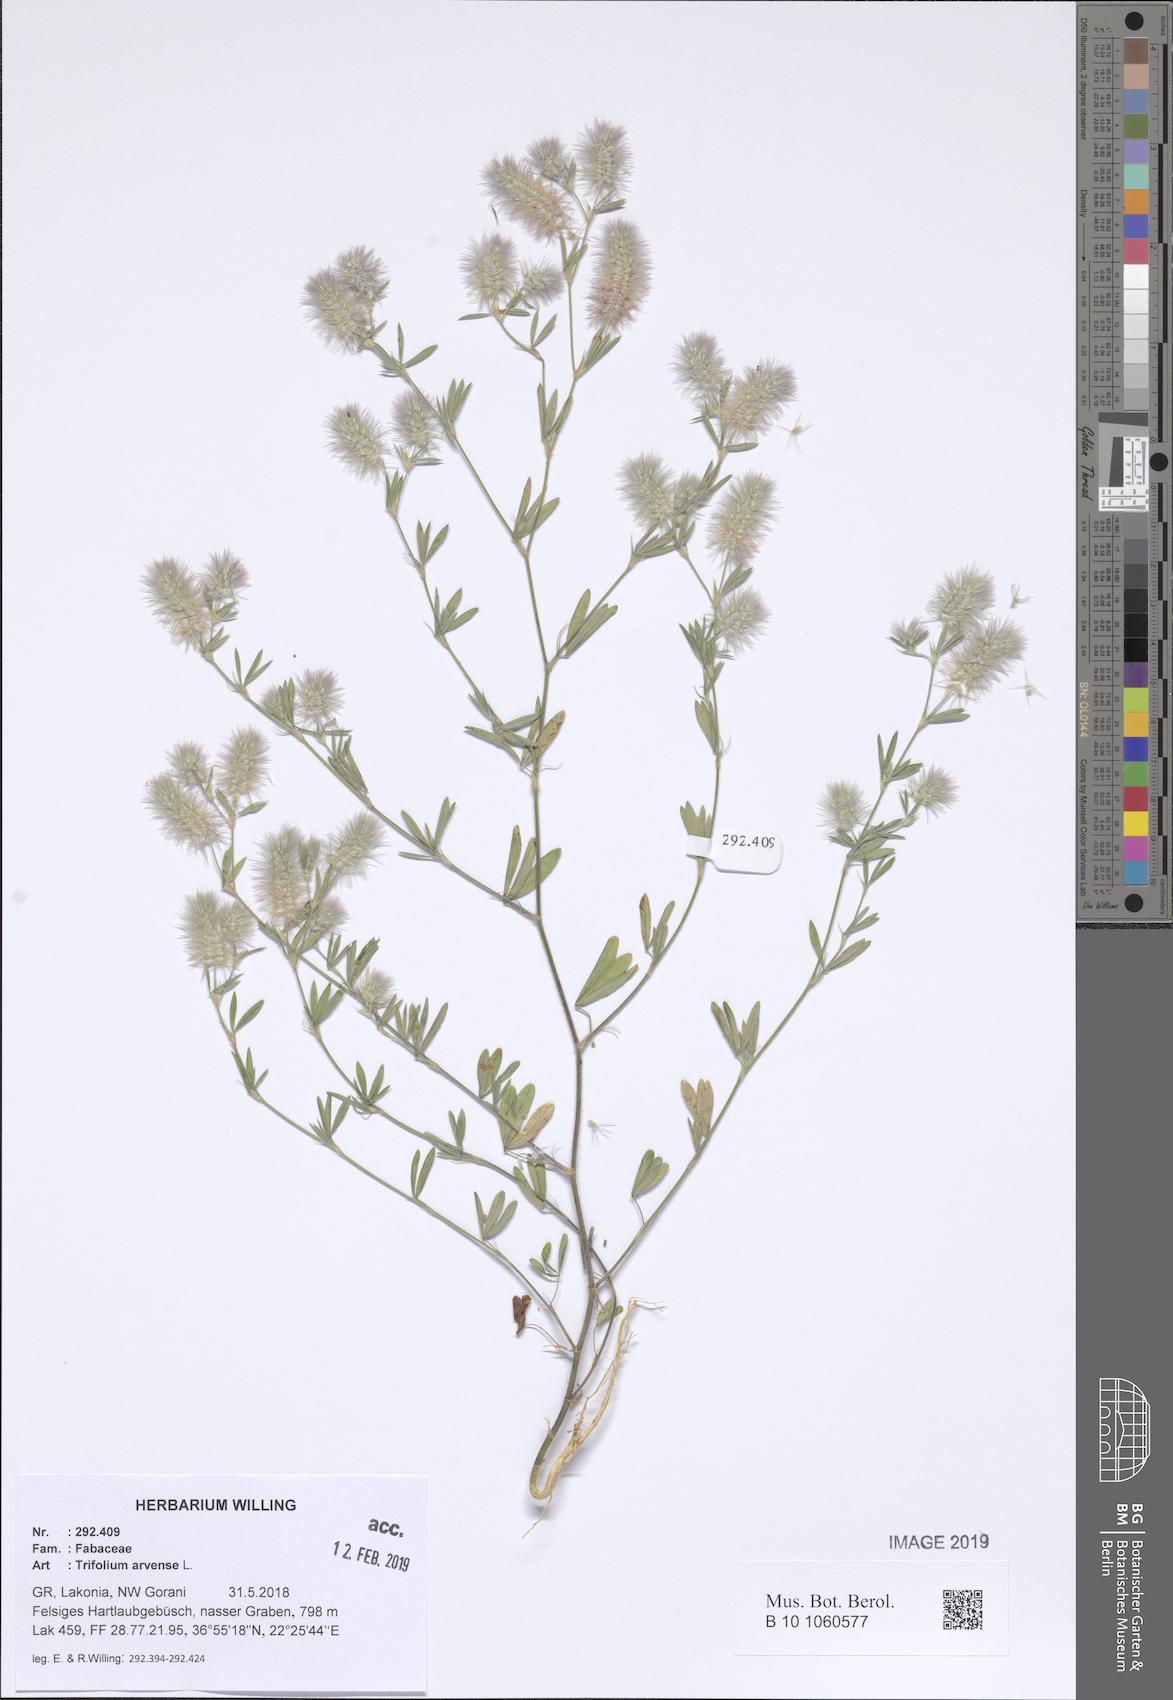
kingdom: Plantae
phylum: Tracheophyta
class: Magnoliopsida
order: Fabales
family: Fabaceae
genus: Trifolium
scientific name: Trifolium arvense
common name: Hare's-foot clover
